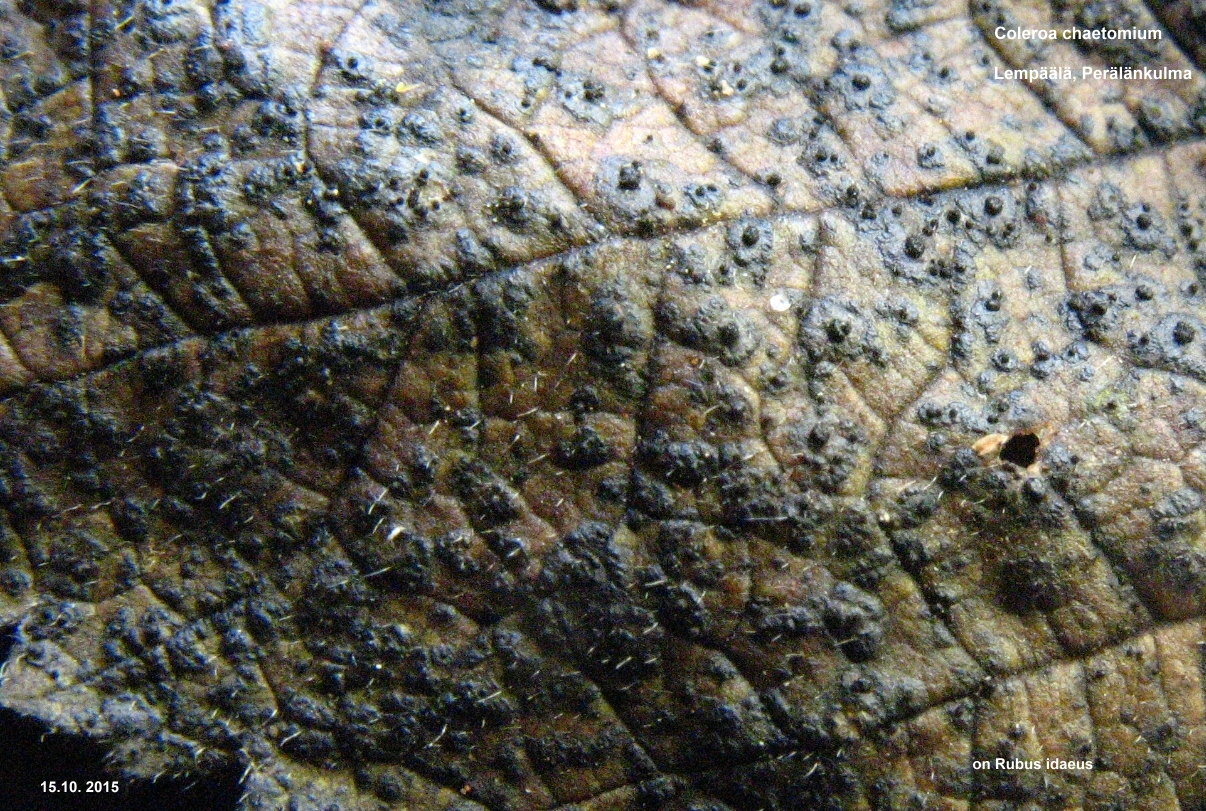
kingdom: Fungi
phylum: Ascomycota
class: Dothideomycetes
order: Venturiales
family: Venturiaceae
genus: Coleroa
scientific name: Coleroa chaetomium
